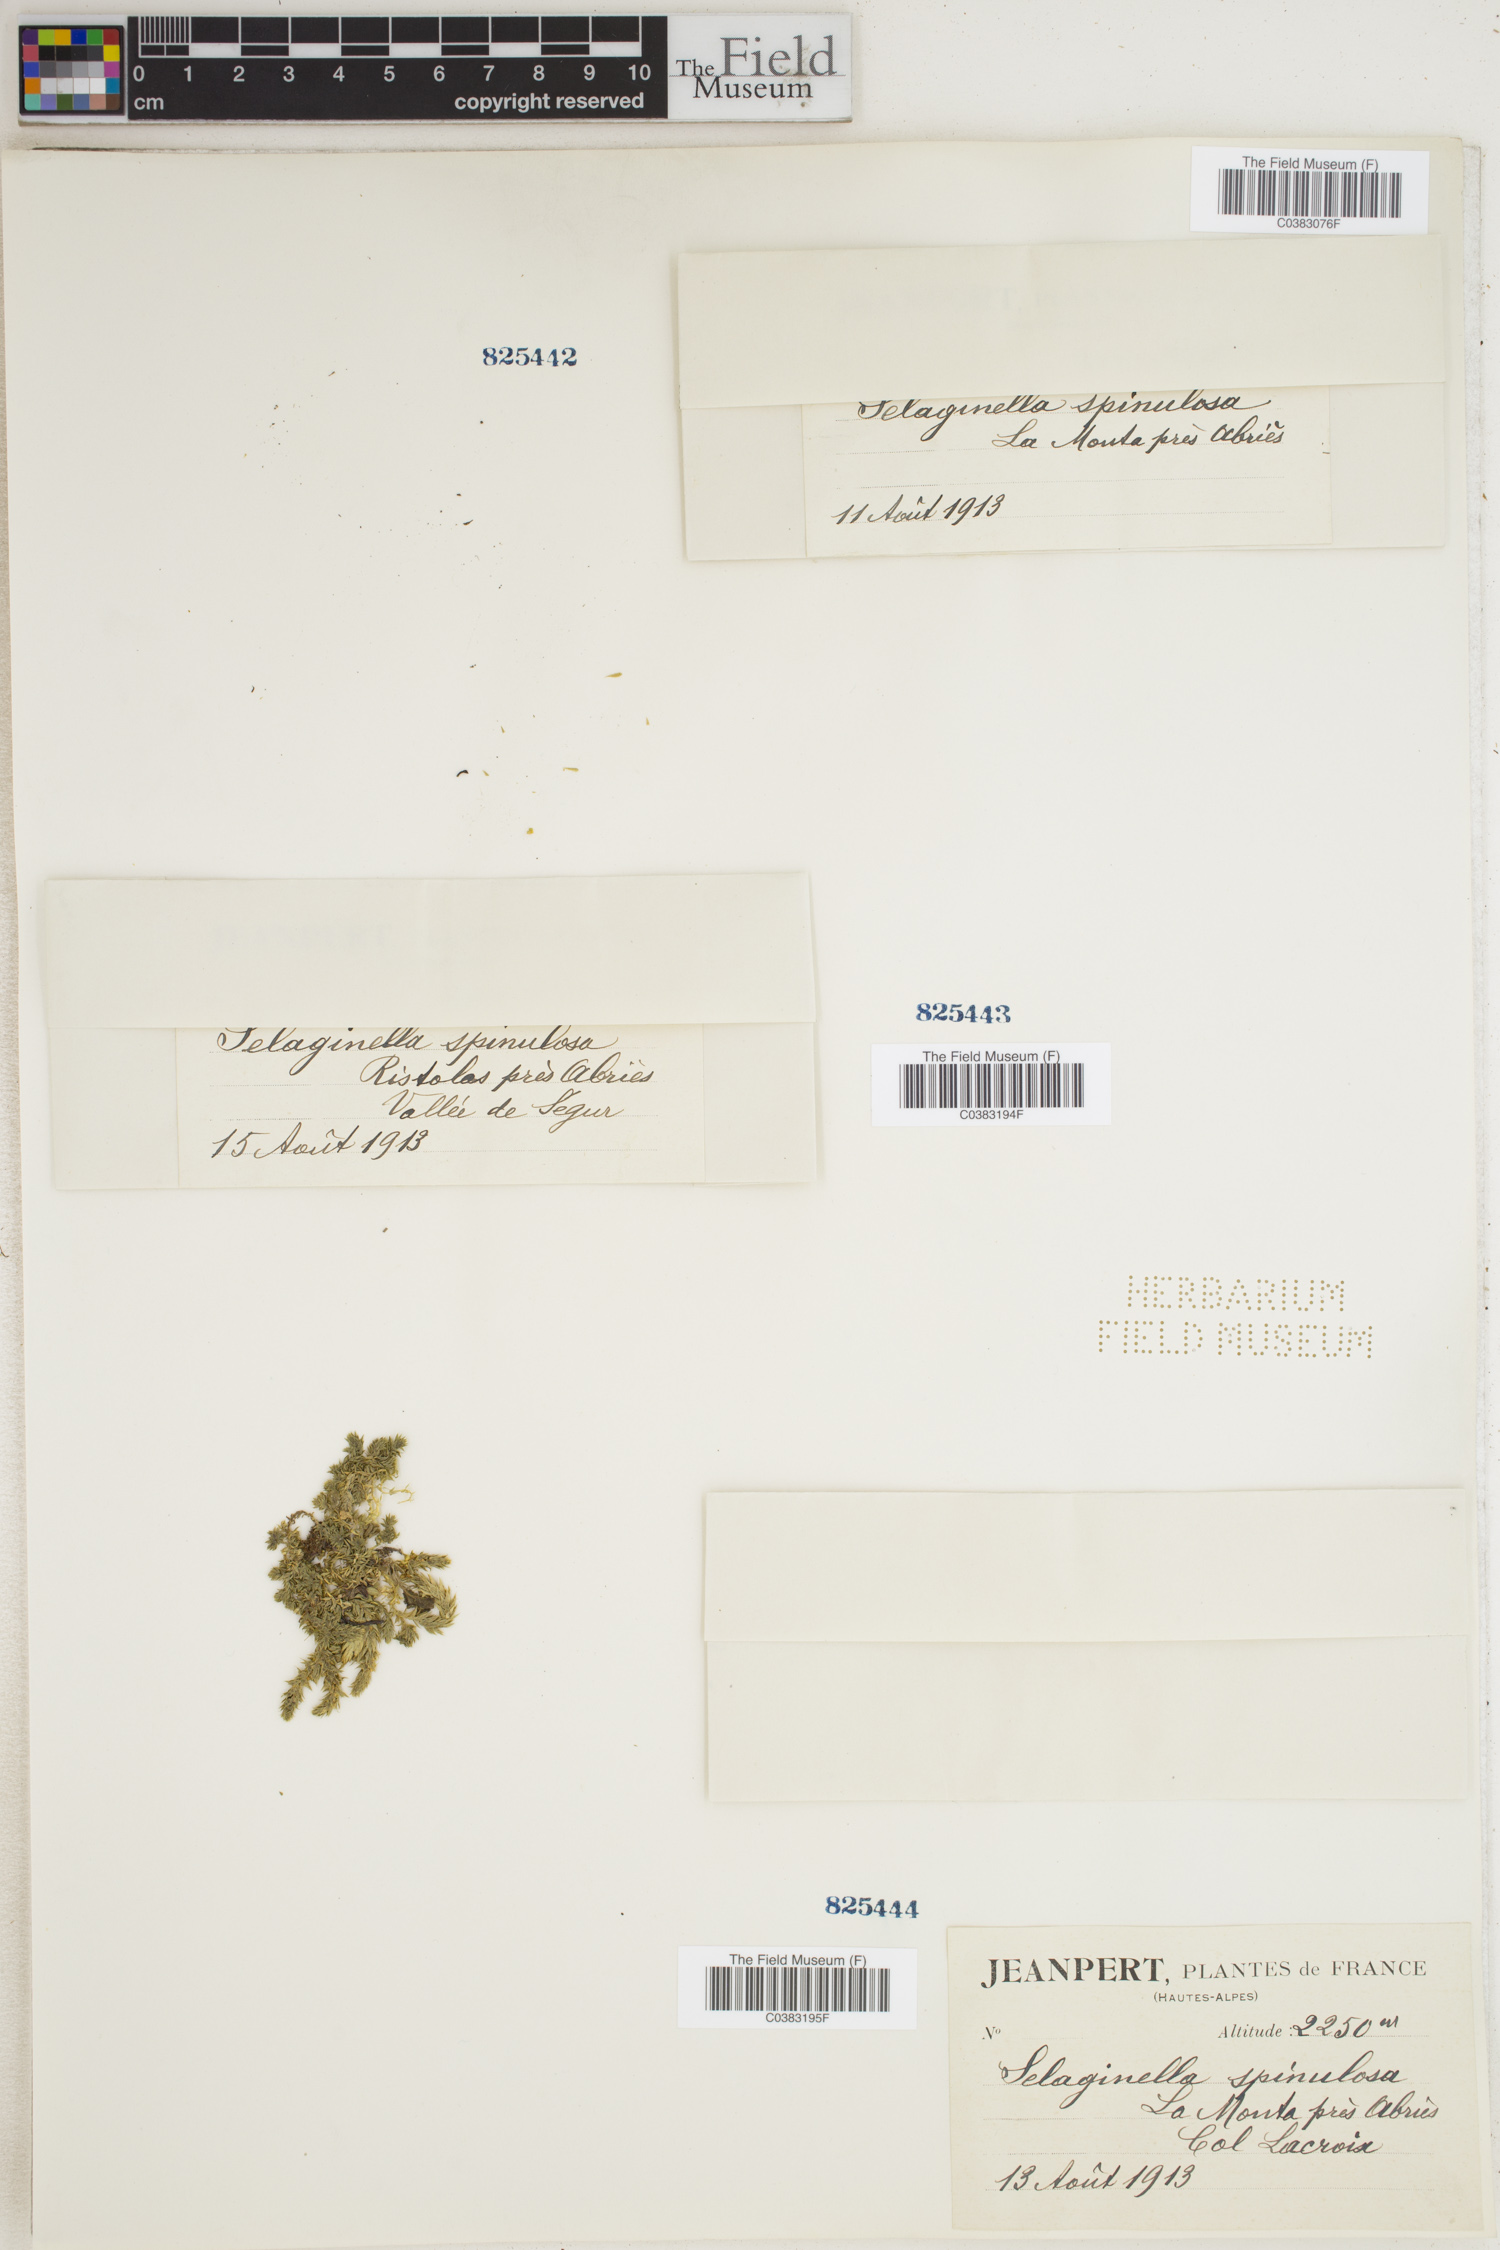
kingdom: Plantae
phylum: Tracheophyta
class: Lycopodiopsida
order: Selaginellales
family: Selaginellaceae
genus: Selaginella
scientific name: Selaginella selaginoides
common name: Prickly mountain-moss
